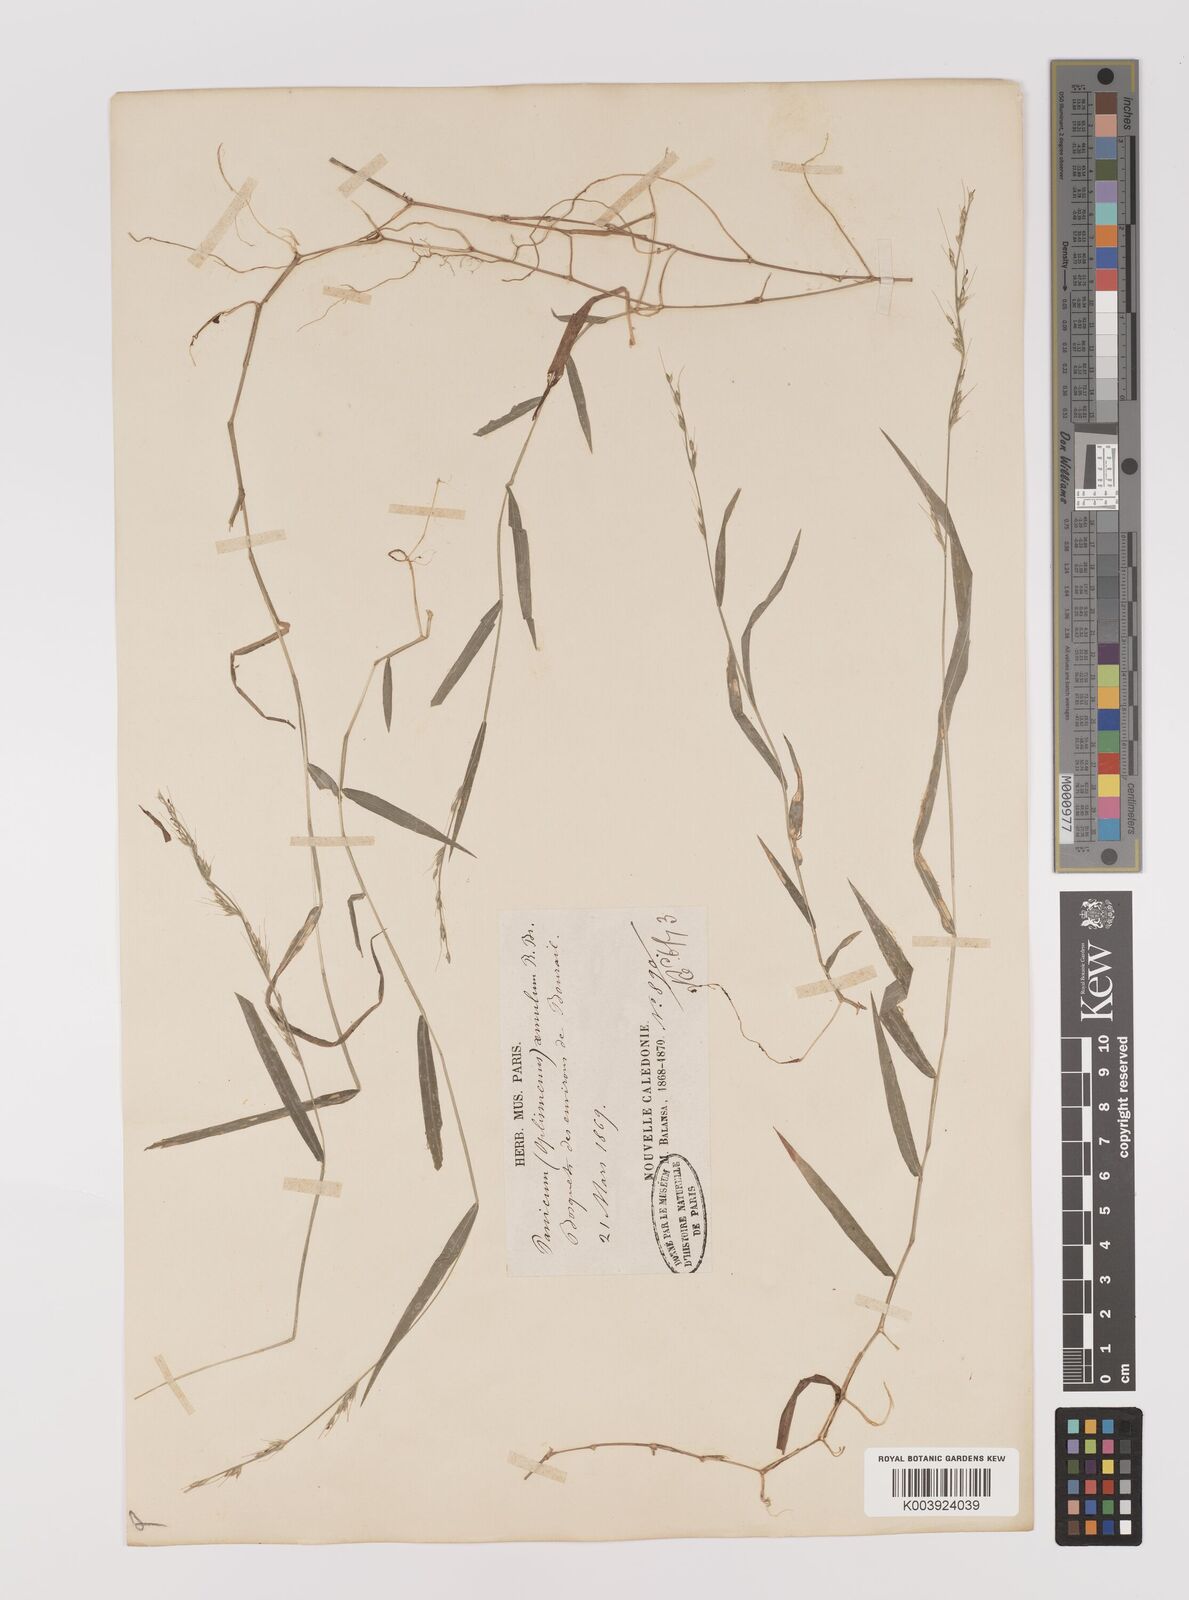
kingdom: Plantae
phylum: Tracheophyta
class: Liliopsida
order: Poales
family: Poaceae
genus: Oplismenus
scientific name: Oplismenus hirtellus
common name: Basketgrass
